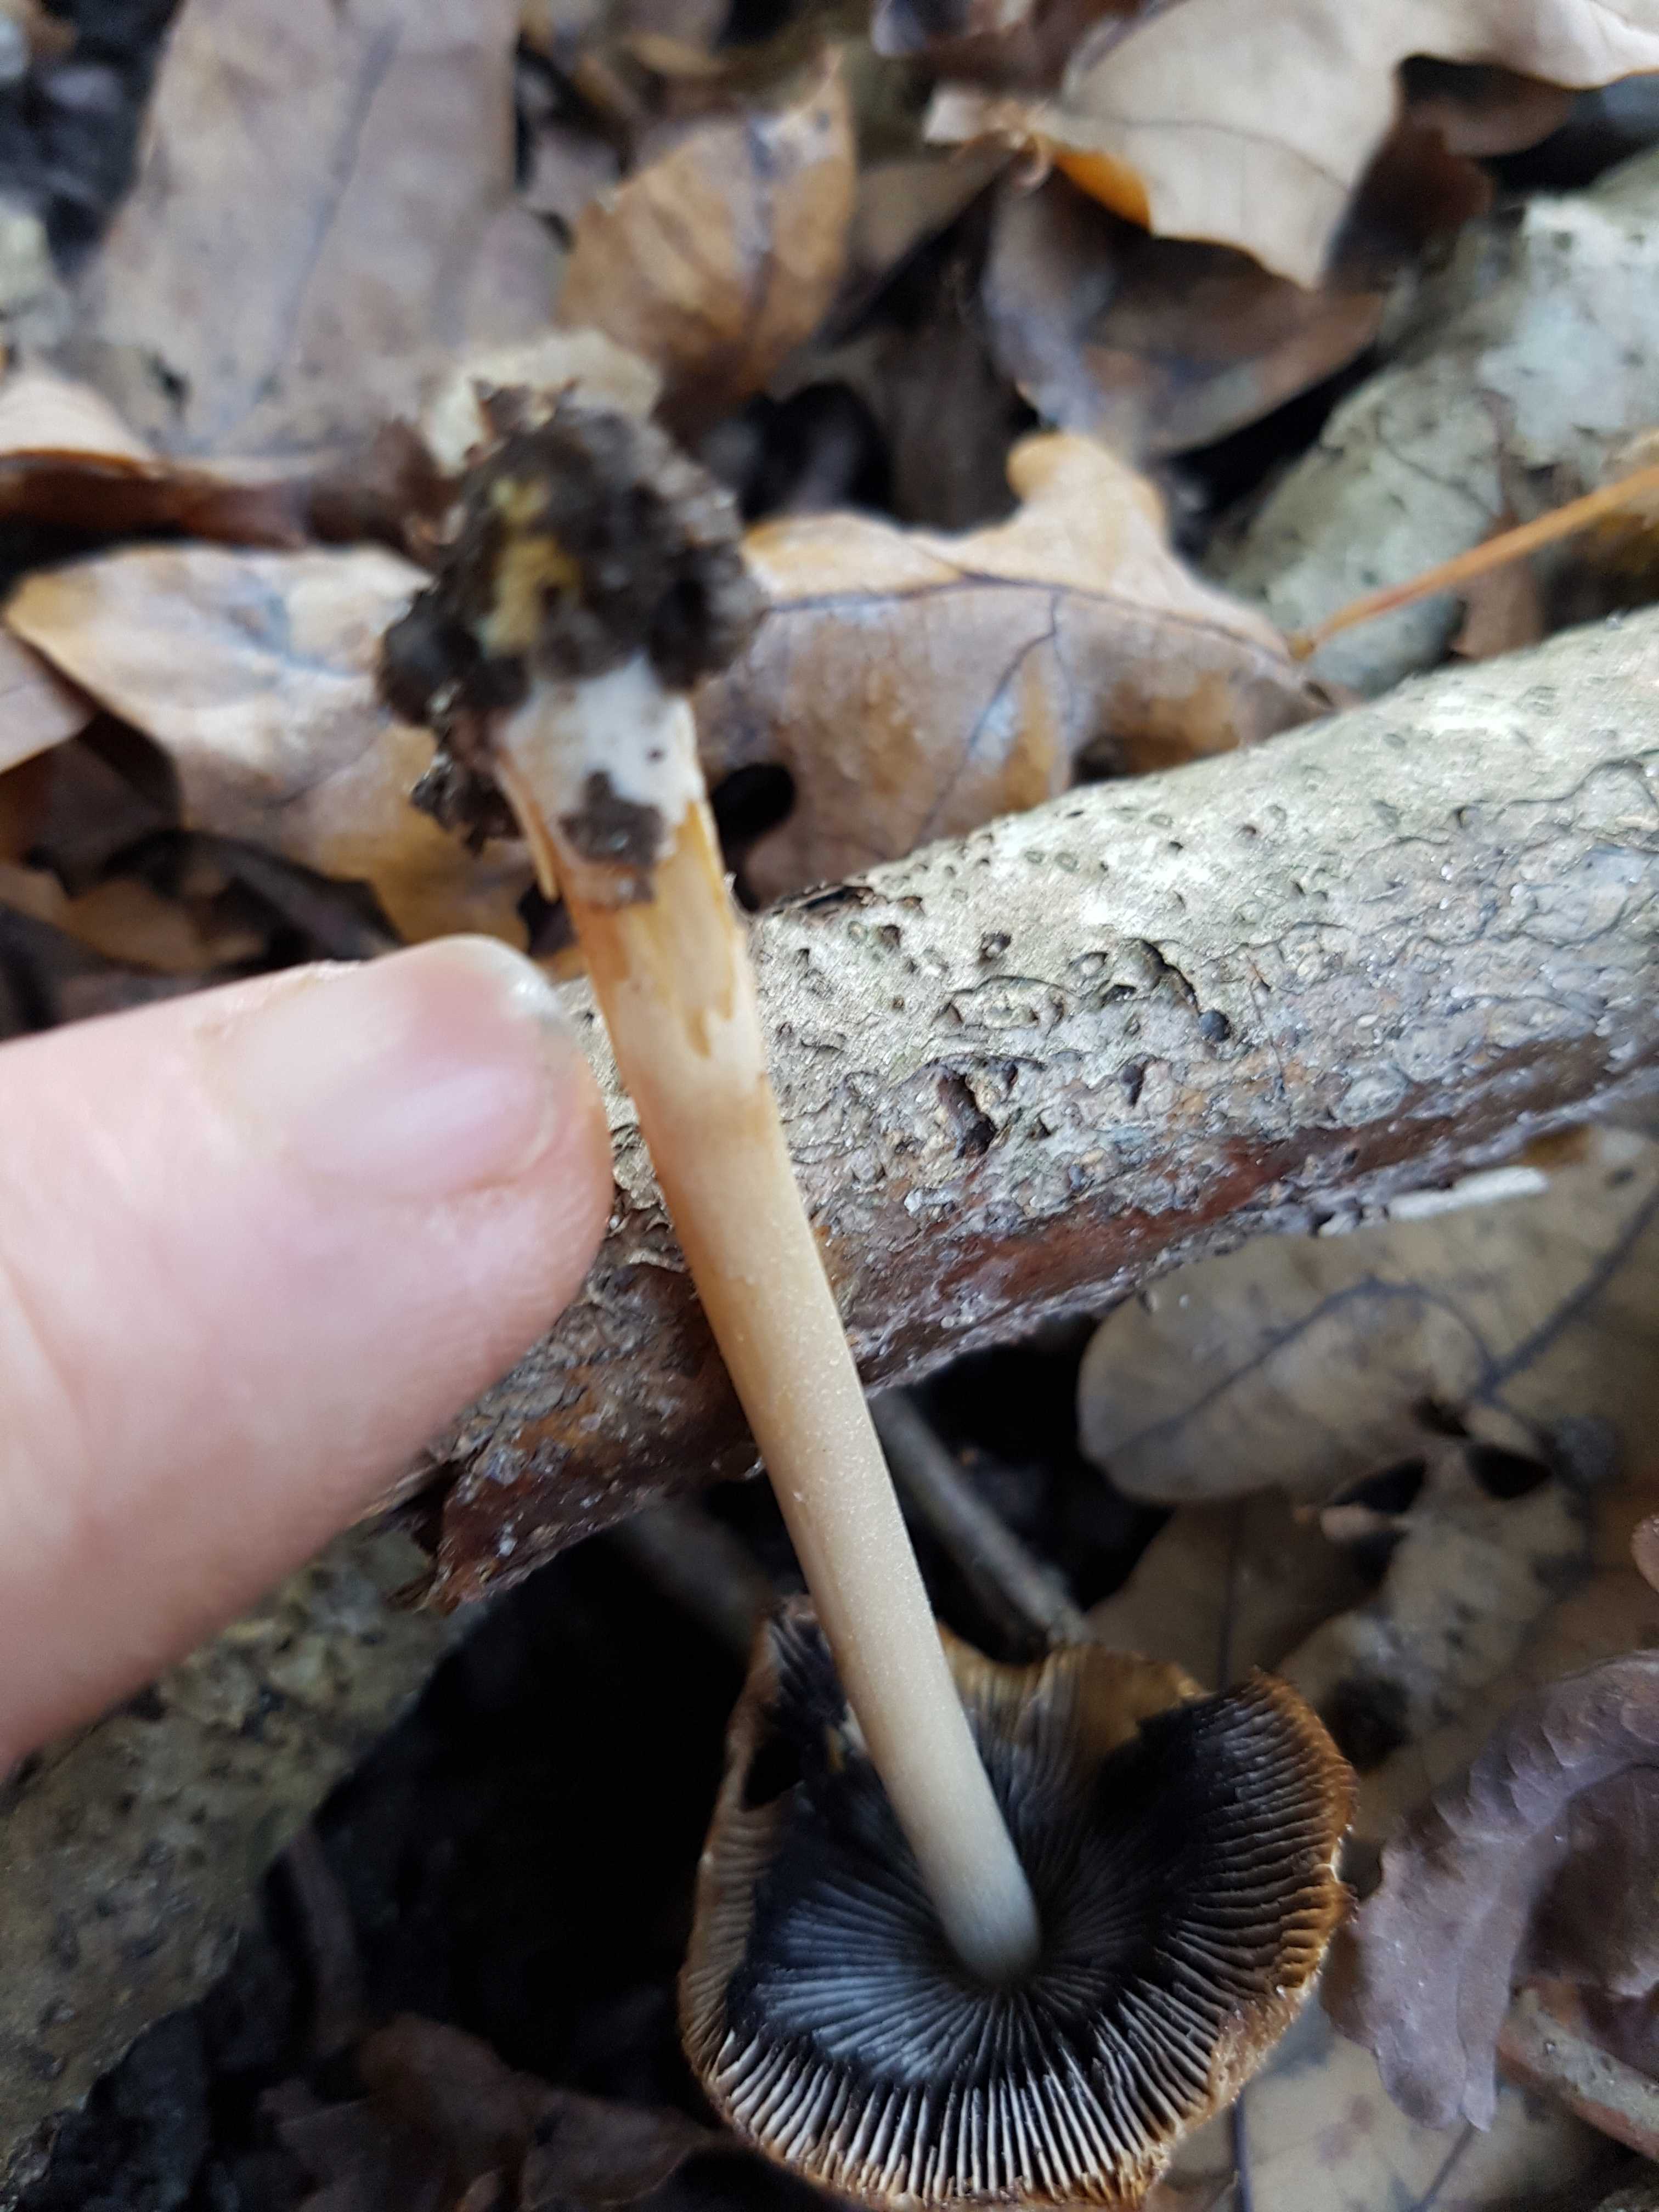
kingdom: Fungi
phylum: Basidiomycota
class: Agaricomycetes
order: Agaricales
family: Psathyrellaceae
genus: Coprinellus
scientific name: Coprinellus
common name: blækhat
